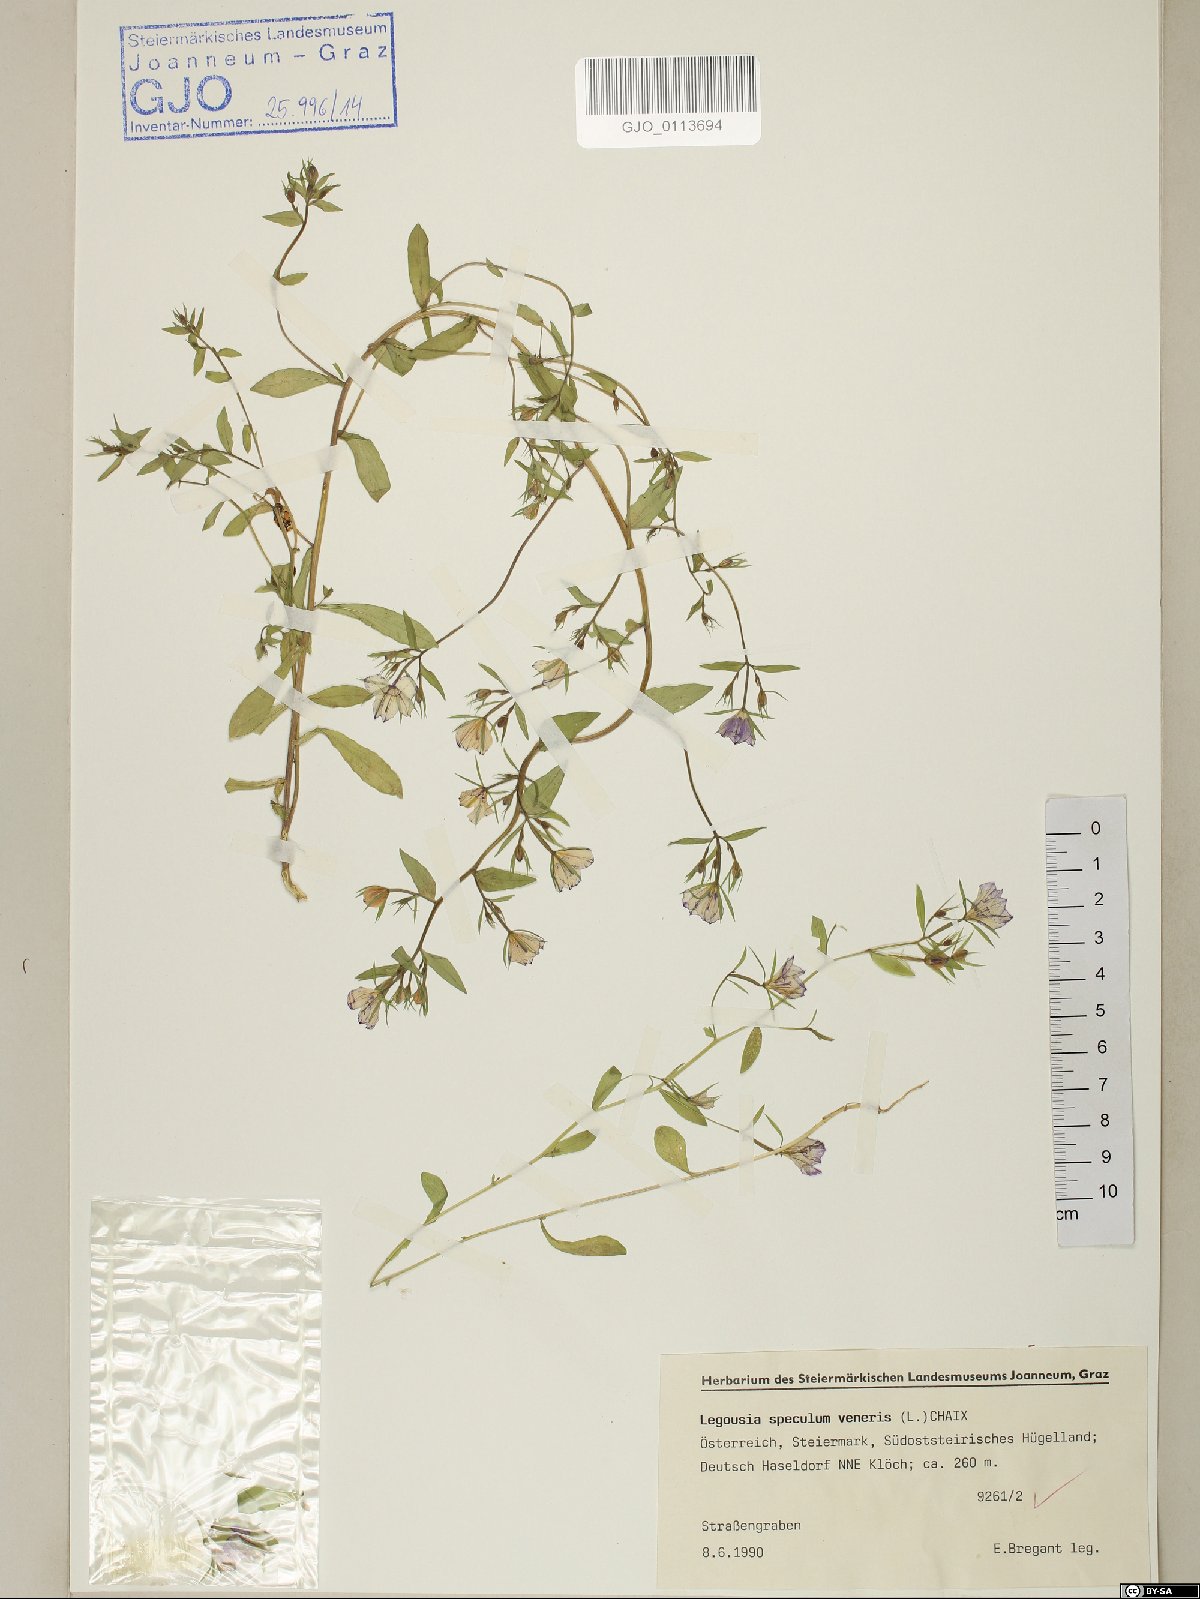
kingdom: Plantae
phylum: Tracheophyta
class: Magnoliopsida
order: Asterales
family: Campanulaceae
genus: Legousia
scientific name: Legousia speculum-veneris
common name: Large venus's-looking-glass
